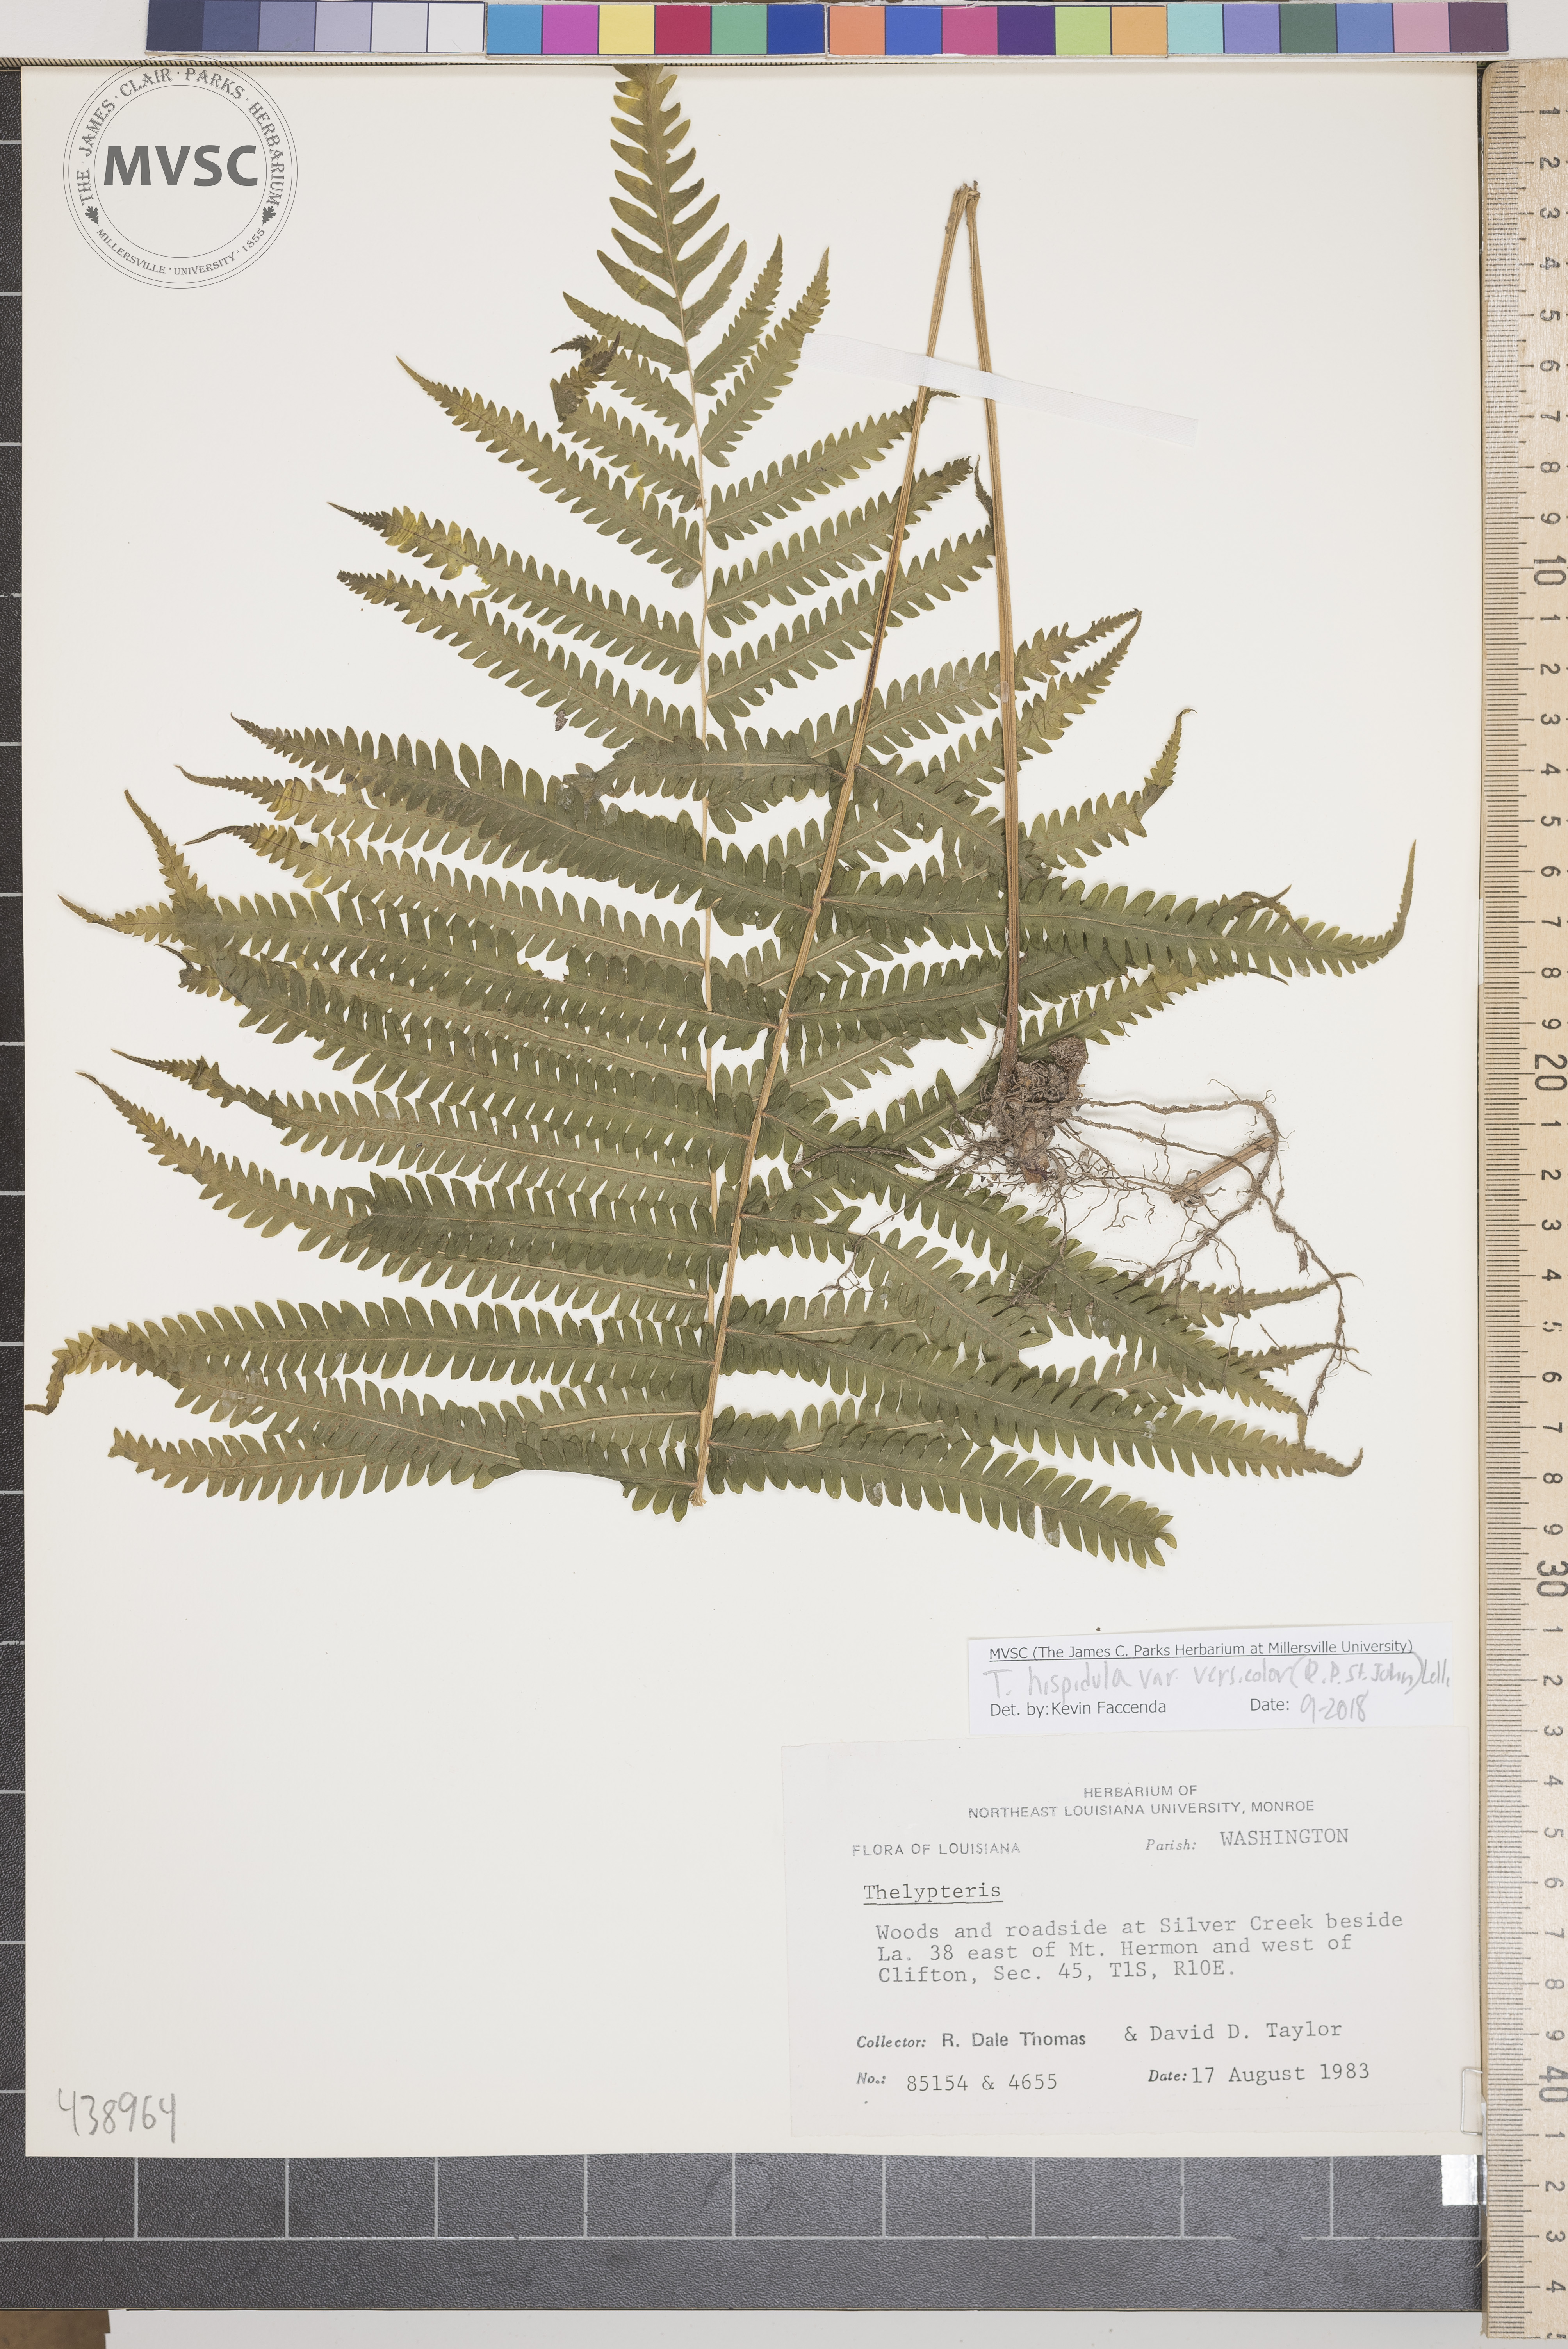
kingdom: Plantae
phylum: Tracheophyta
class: Polypodiopsida
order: Polypodiales
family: Thelypteridaceae
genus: Pelazoneuron
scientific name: Pelazoneuron kunthii
